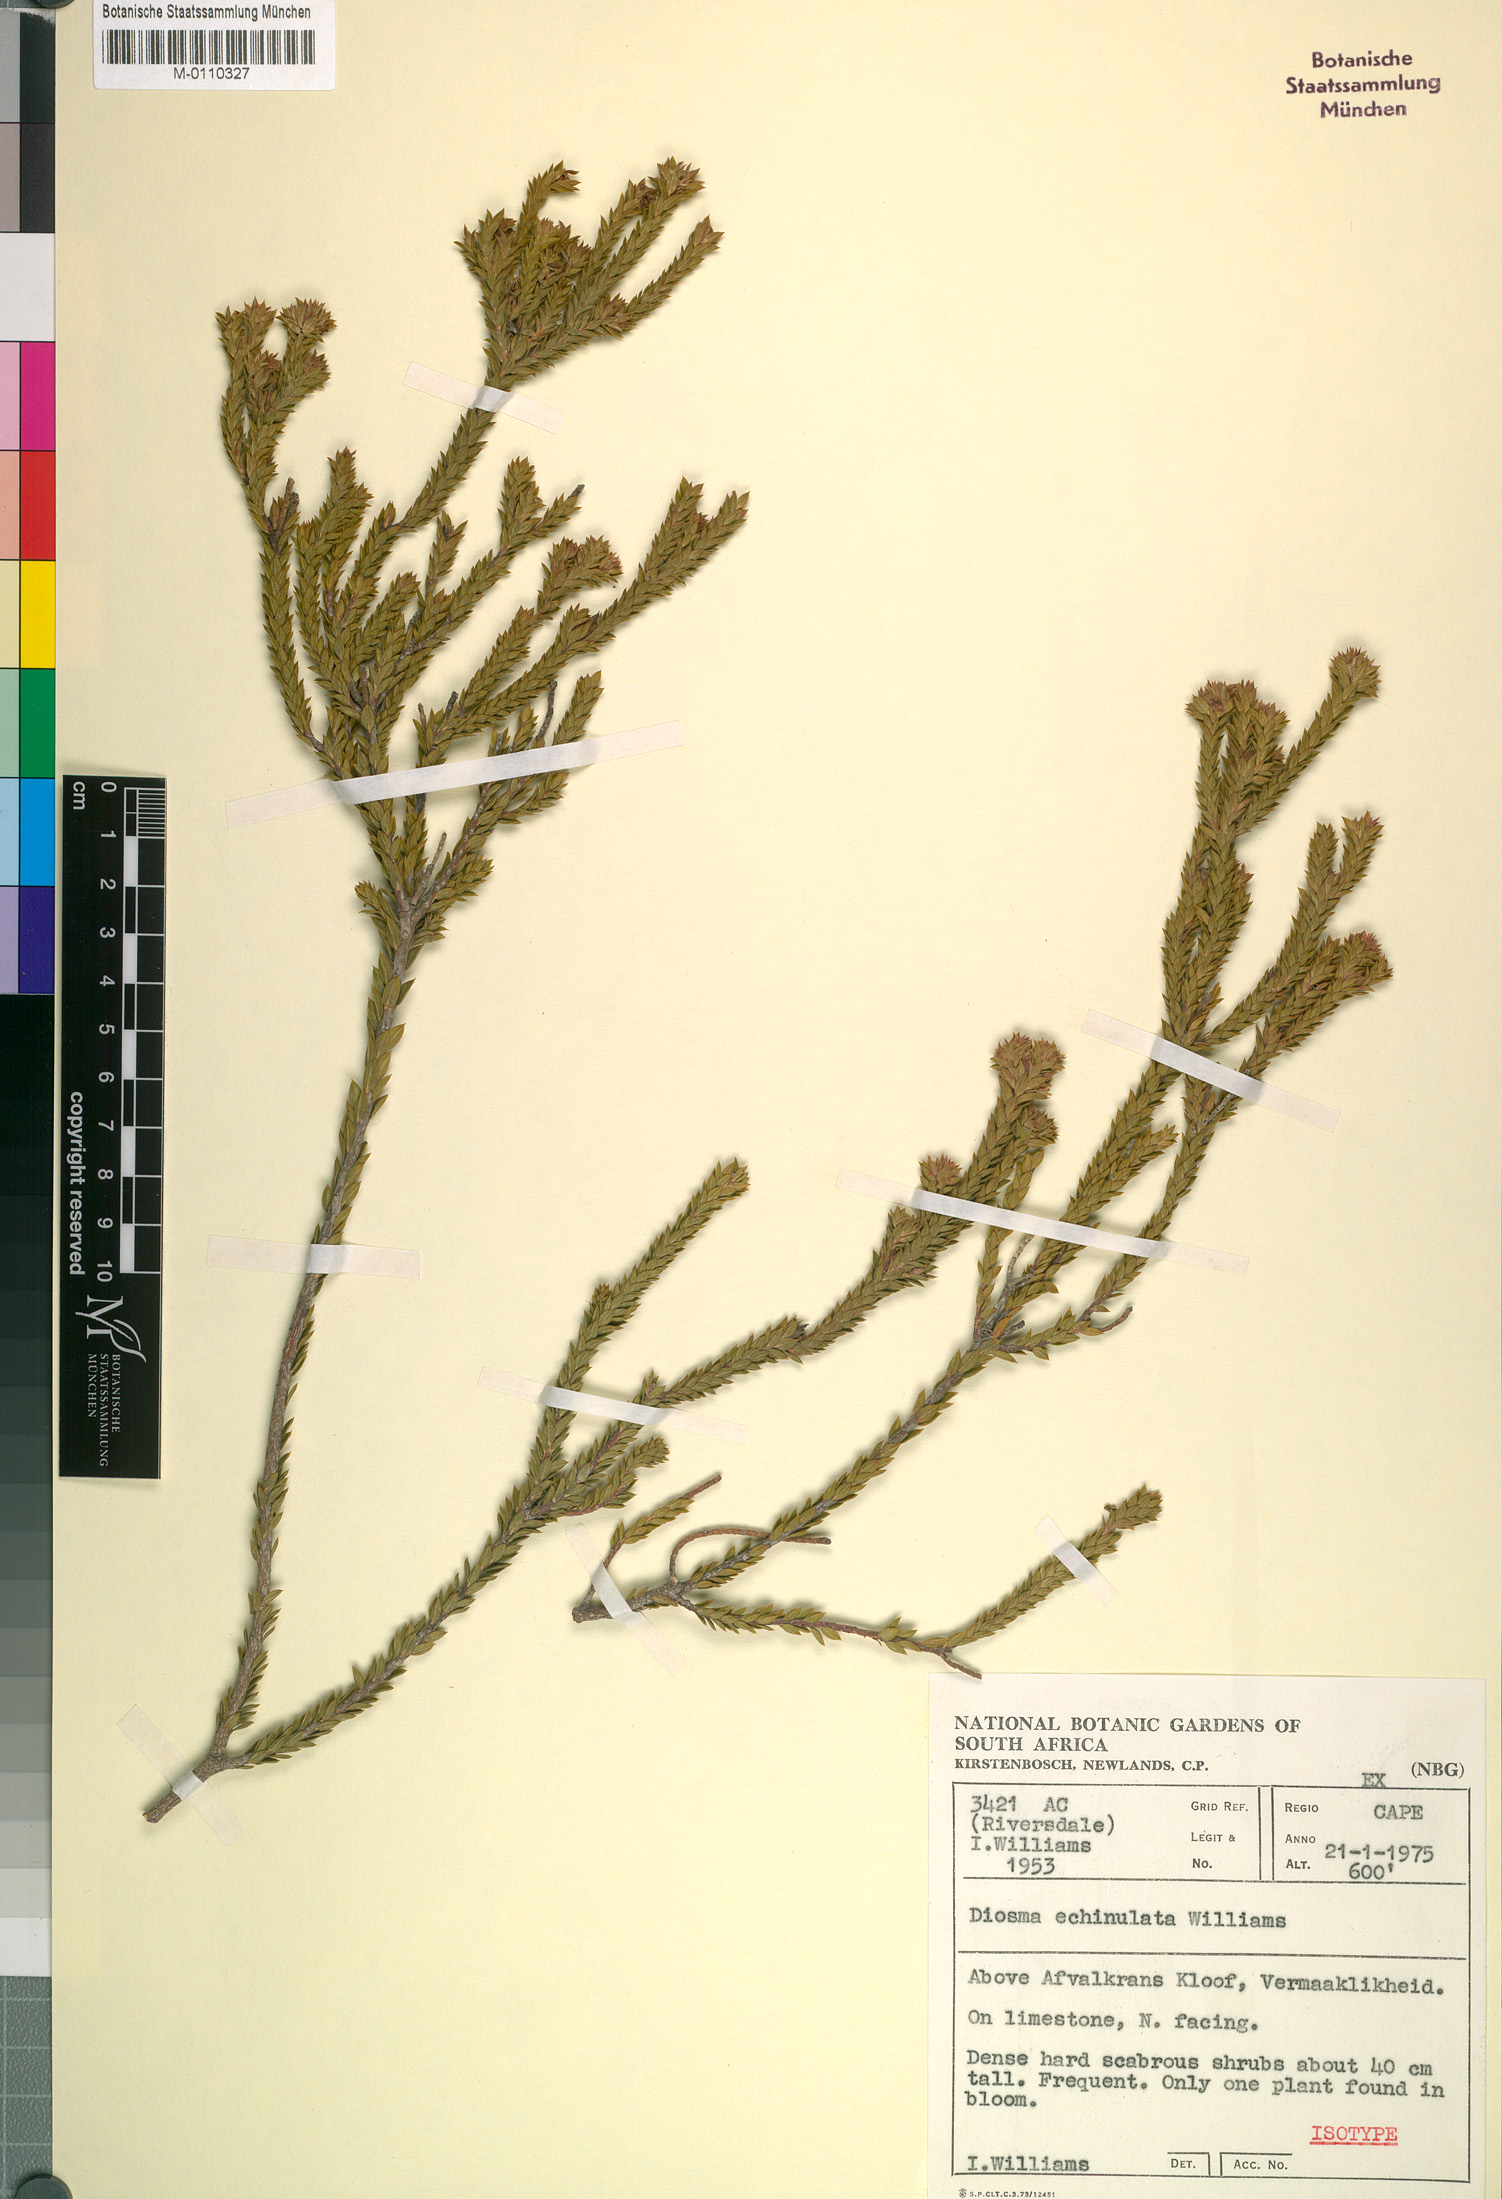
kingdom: Plantae
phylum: Tracheophyta
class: Magnoliopsida
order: Sapindales
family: Rutaceae
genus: Diosma
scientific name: Diosma echinulata
